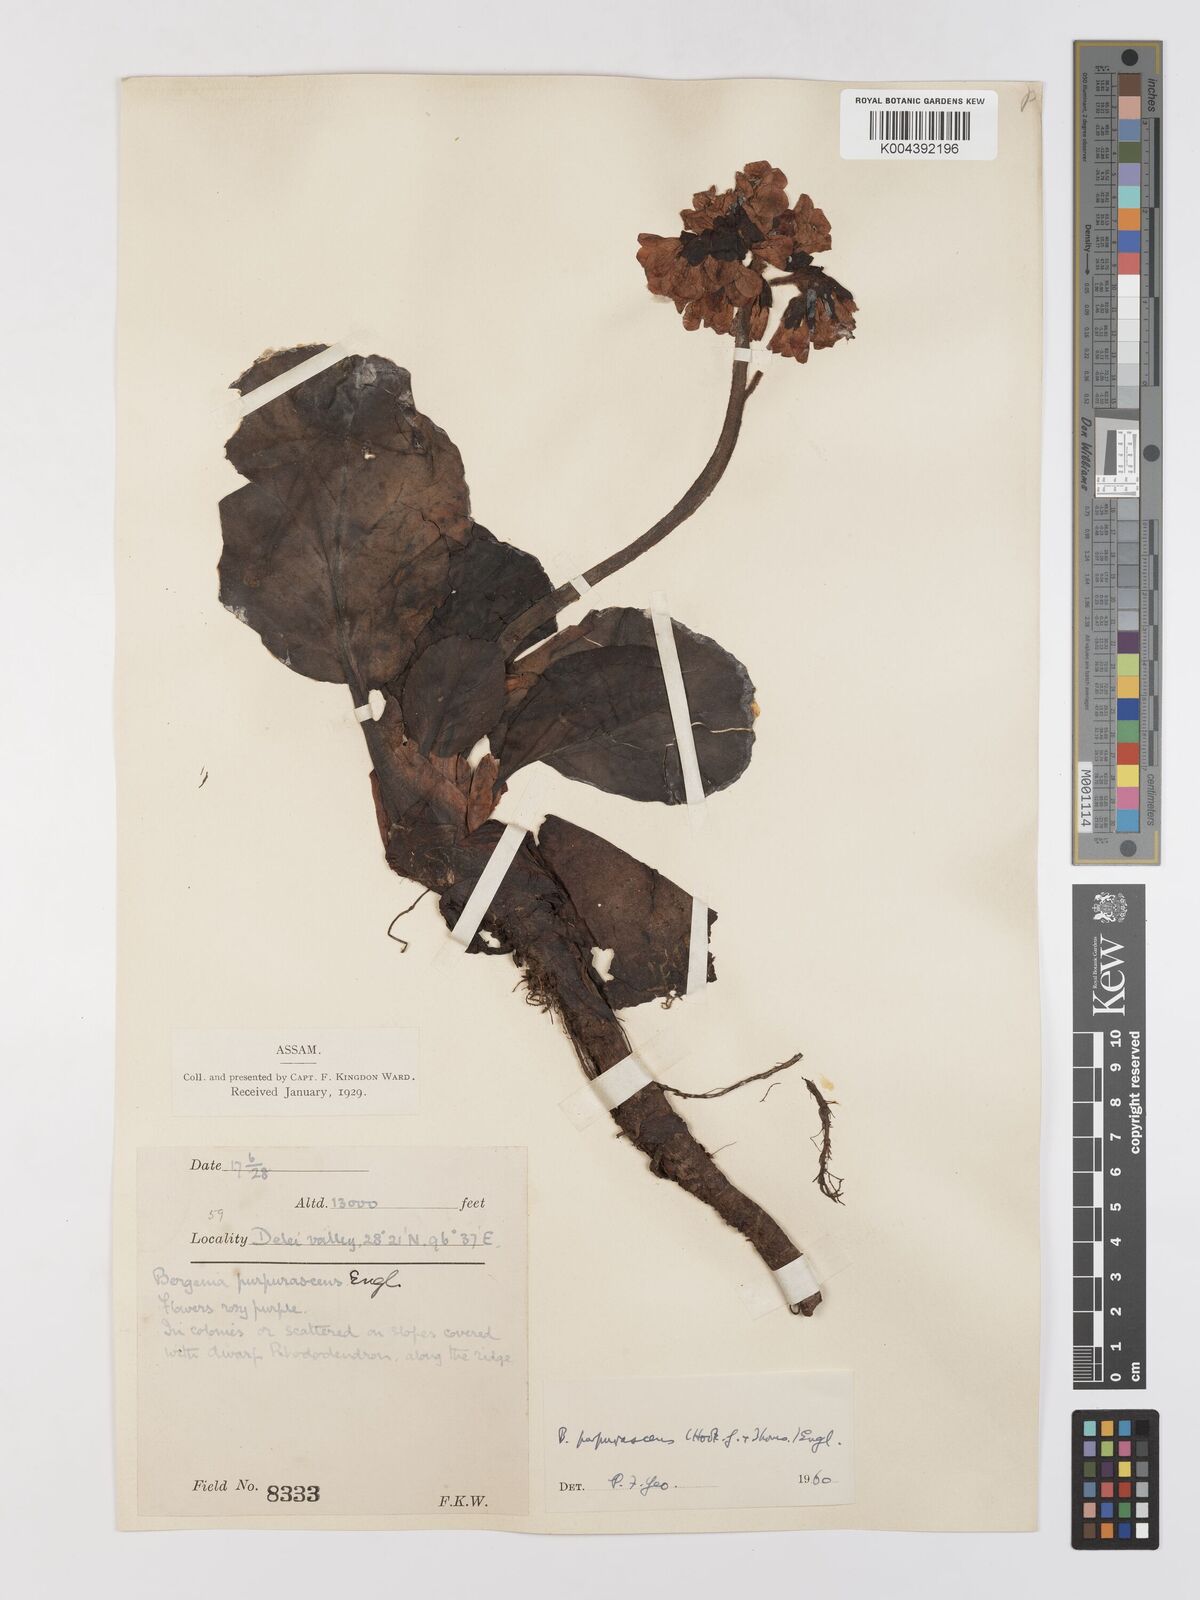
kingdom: Plantae
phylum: Tracheophyta
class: Magnoliopsida
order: Saxifragales
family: Saxifragaceae
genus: Bergenia
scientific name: Bergenia purpurascens
